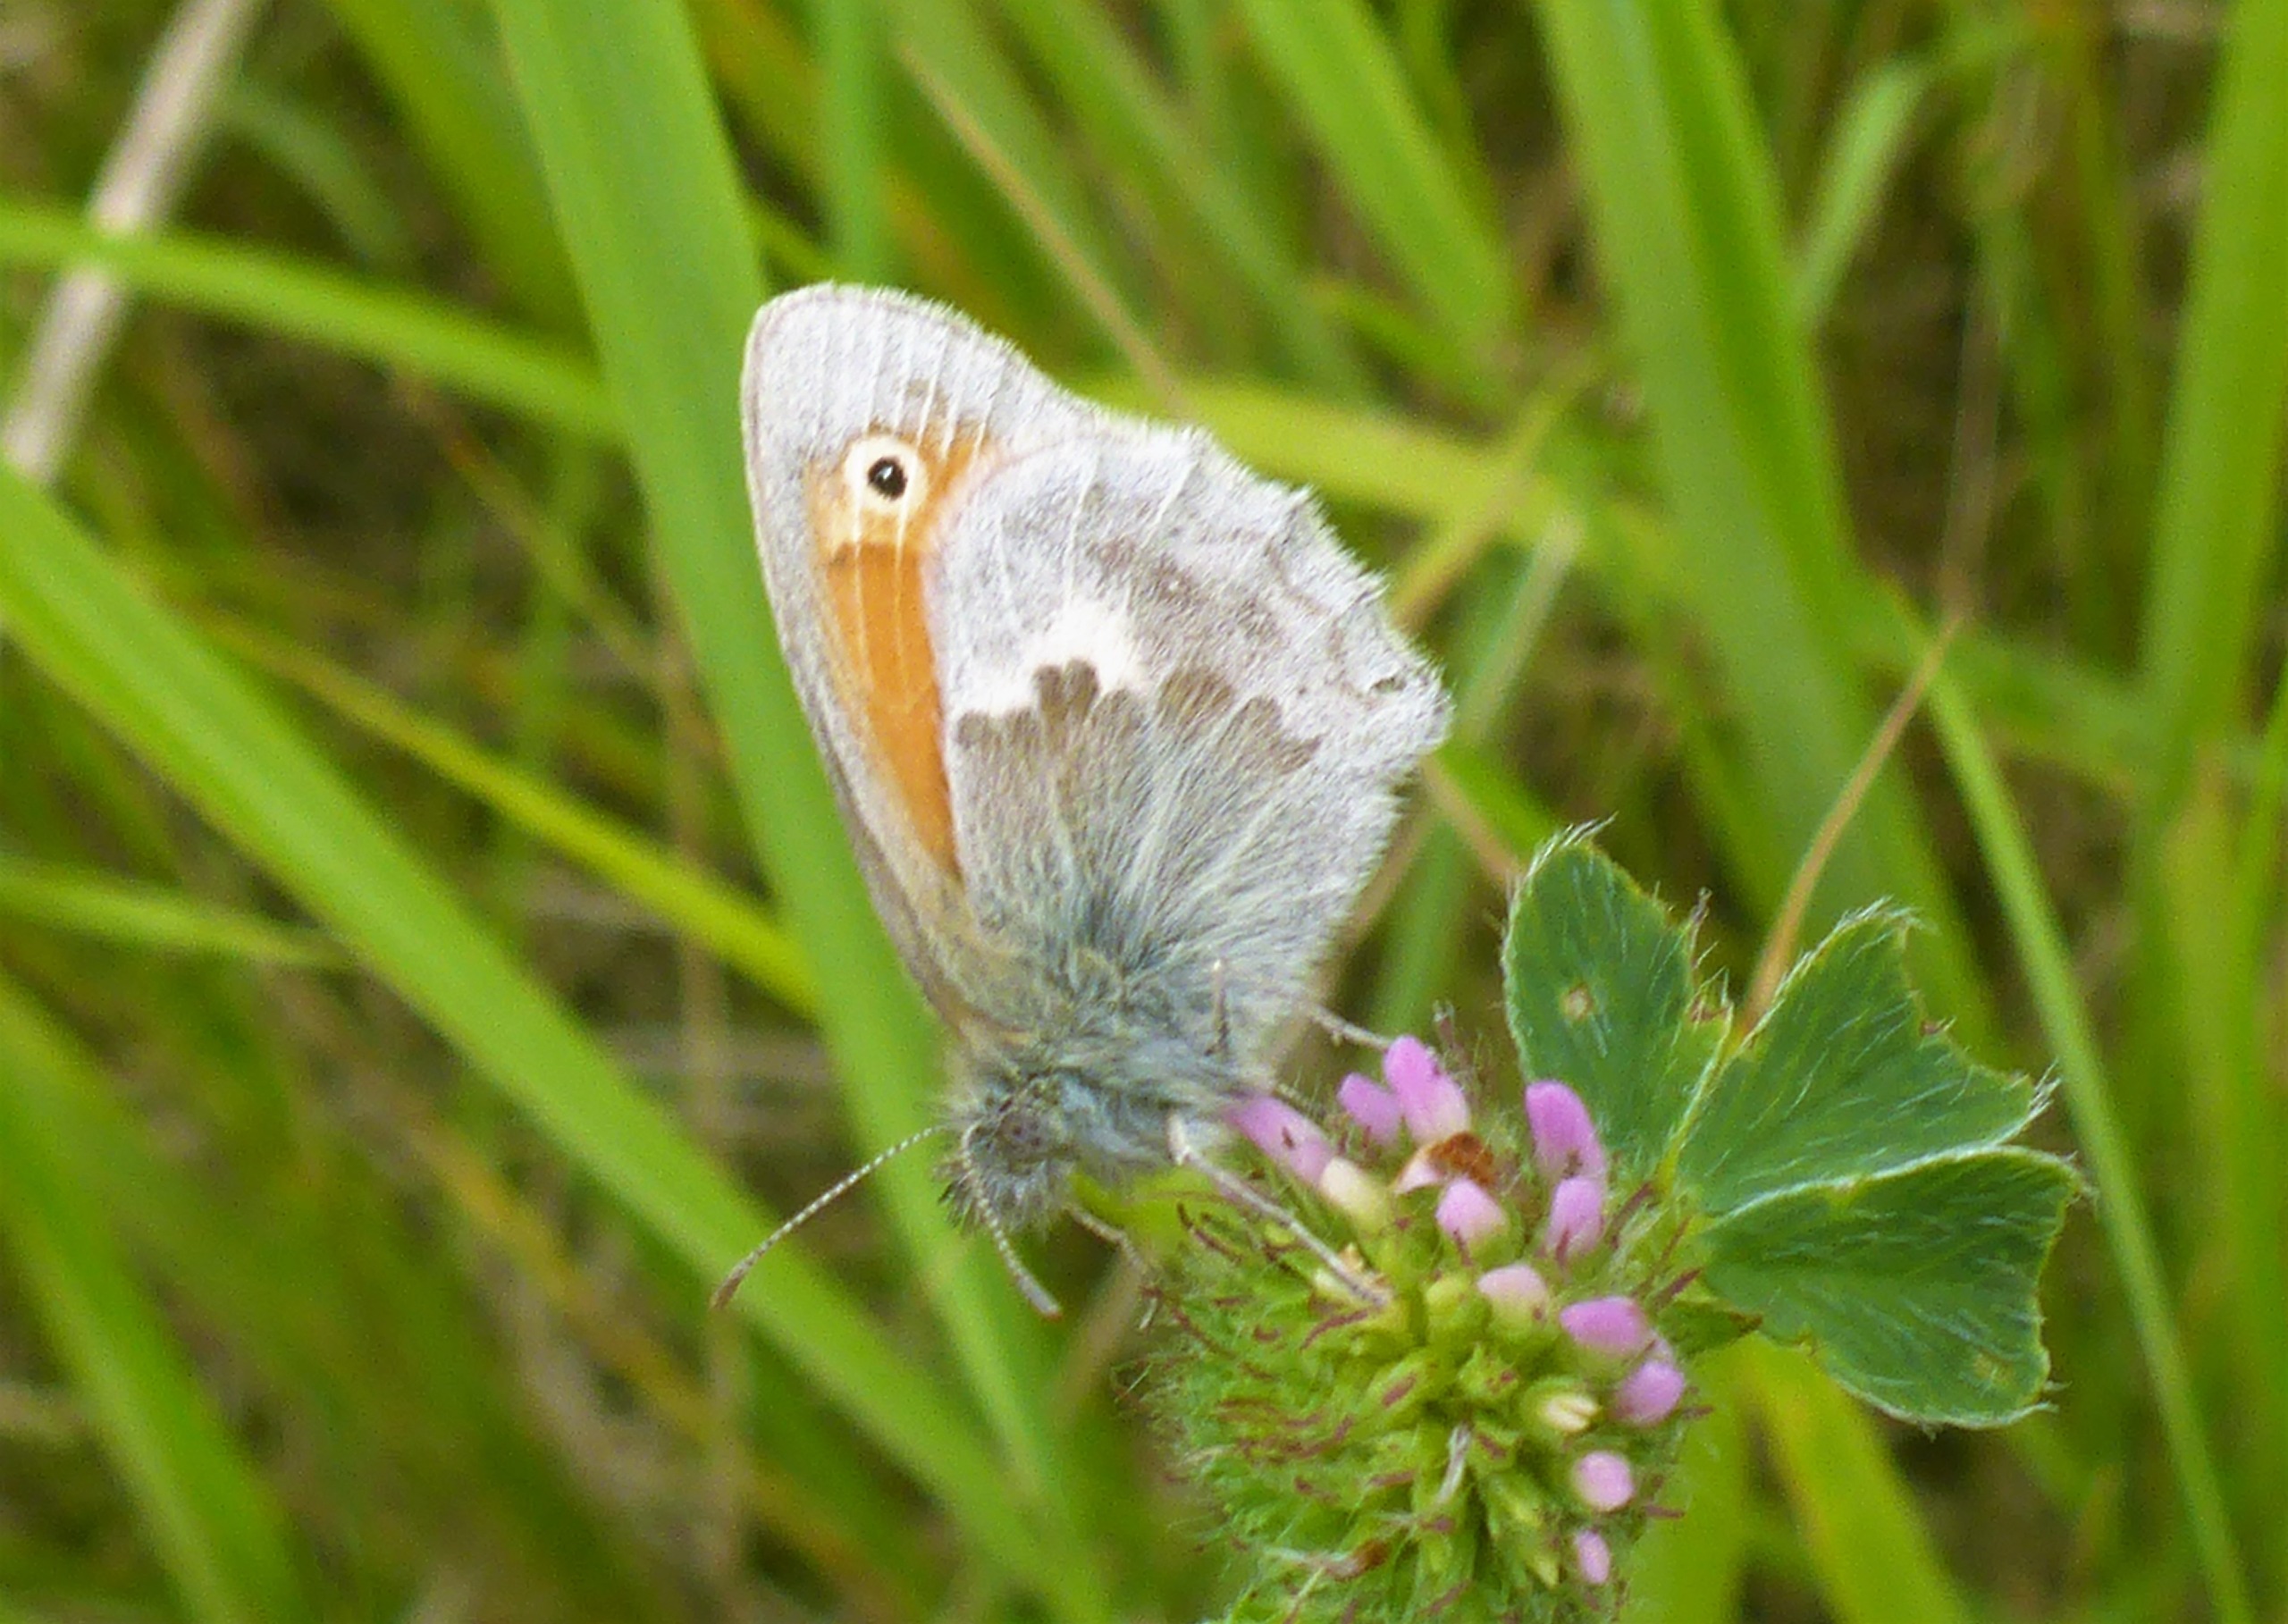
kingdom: Animalia
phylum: Arthropoda
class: Insecta
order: Lepidoptera
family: Nymphalidae
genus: Coenonympha
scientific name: Coenonympha pamphilus
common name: Okkergul randøje
